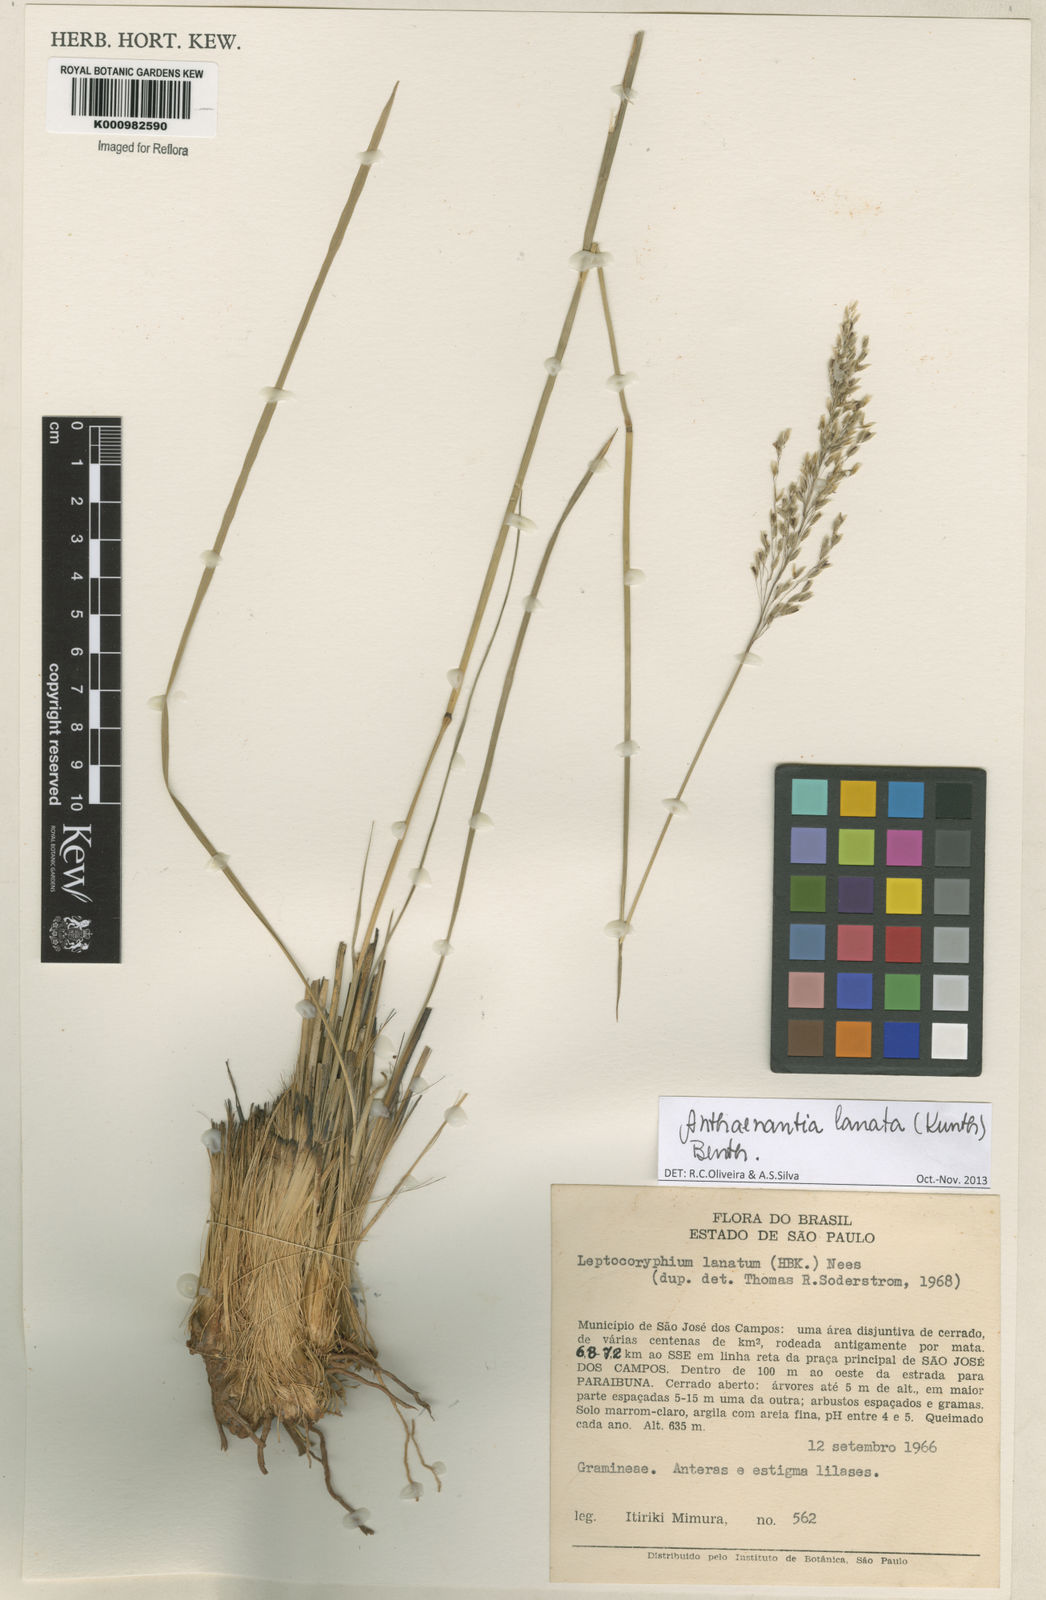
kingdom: Plantae
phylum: Tracheophyta
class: Liliopsida
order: Poales
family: Poaceae
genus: Anthenantia
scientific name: Anthenantia lanata
